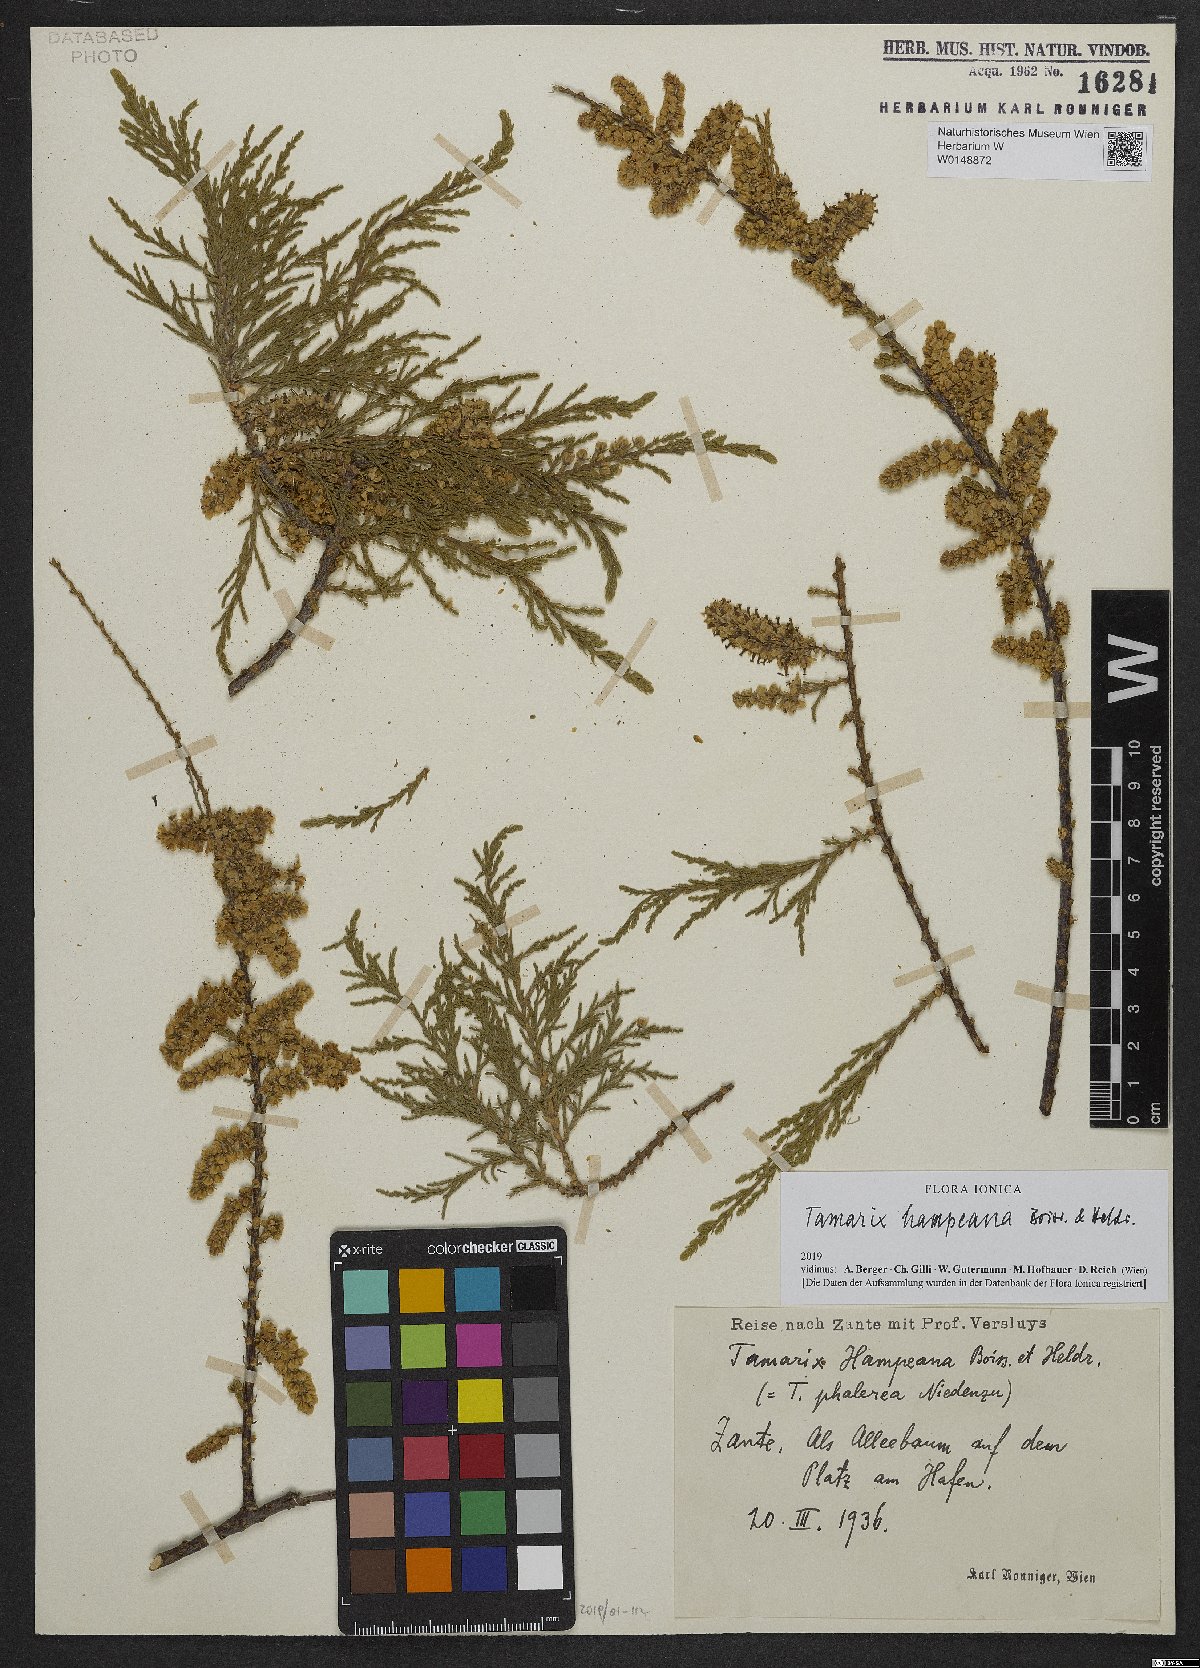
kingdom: Plantae
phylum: Tracheophyta
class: Magnoliopsida
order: Caryophyllales
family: Tamaricaceae
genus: Tamarix
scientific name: Tamarix hampeana
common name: Hampe’s tamarisk
